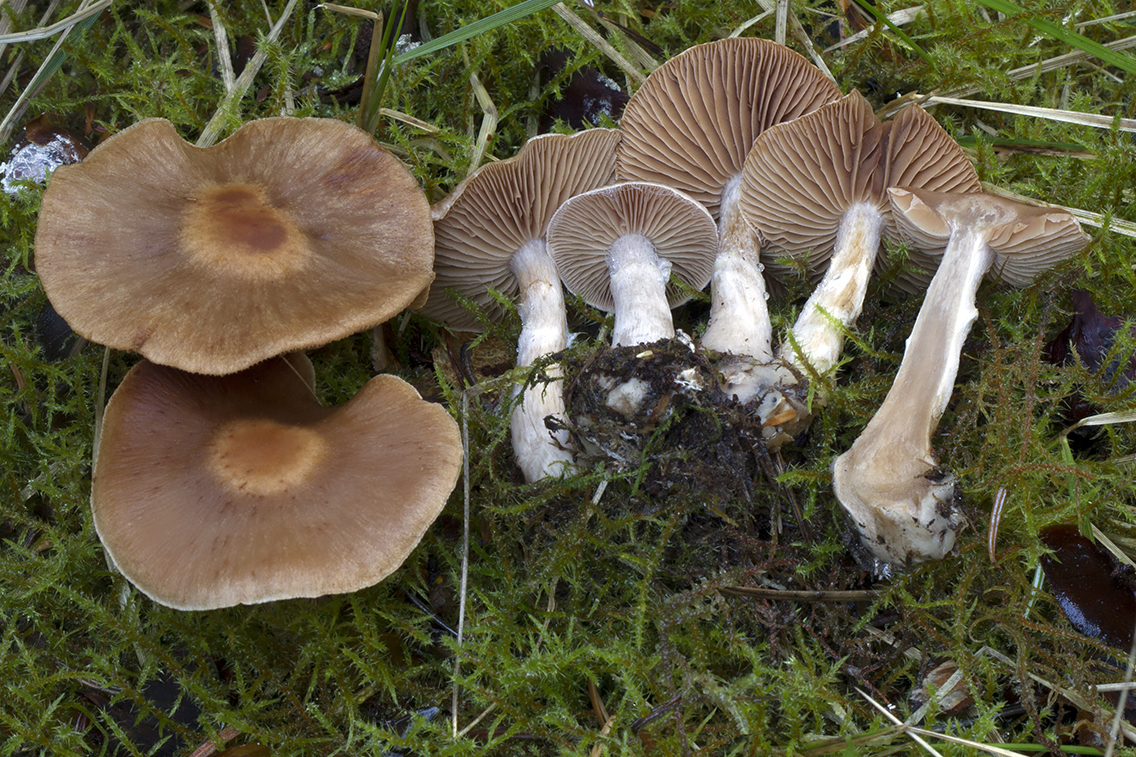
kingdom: Fungi
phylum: Basidiomycota
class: Agaricomycetes
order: Agaricales
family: Cortinariaceae
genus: Cortinarius
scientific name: Cortinarius aptecohaerens
